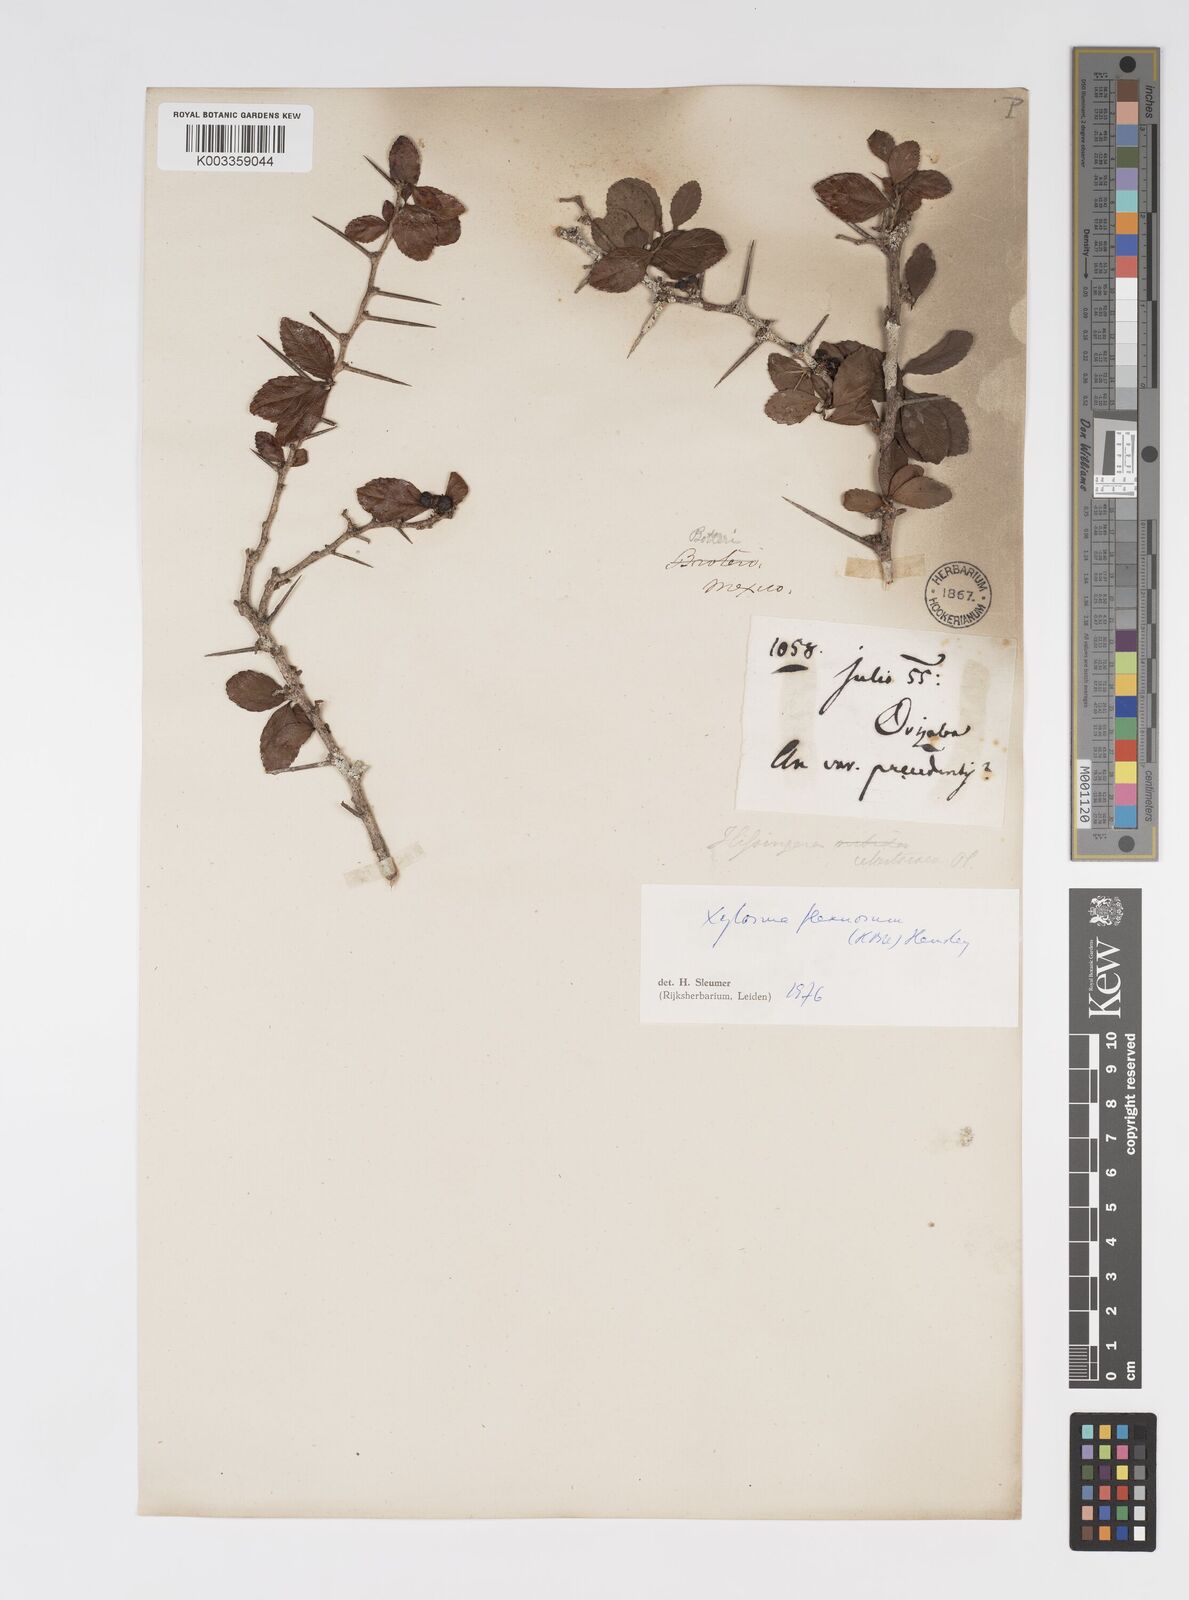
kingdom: Plantae
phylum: Tracheophyta
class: Magnoliopsida
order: Malpighiales
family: Salicaceae
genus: Xylosma
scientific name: Xylosma flexuosa
